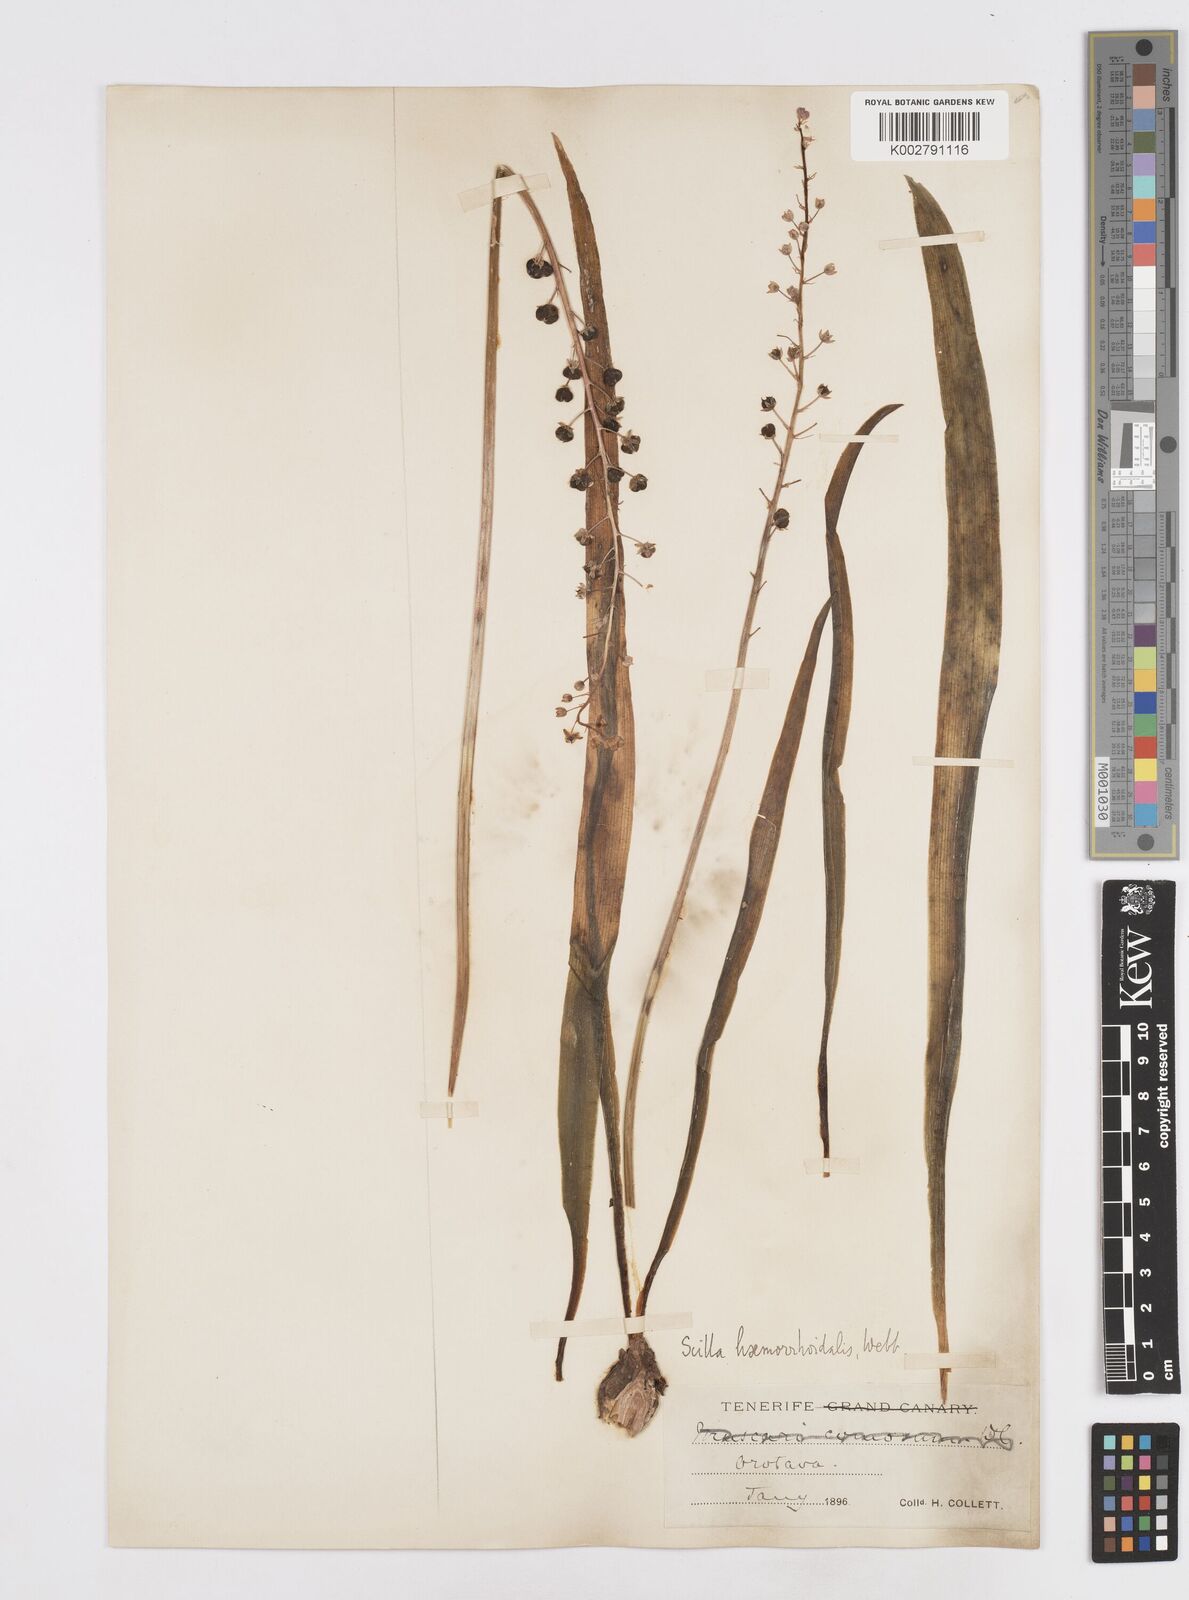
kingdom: Plantae
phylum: Tracheophyta
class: Liliopsida
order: Asparagales
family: Asparagaceae
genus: Scilla
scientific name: Scilla haemorrhoidalis
